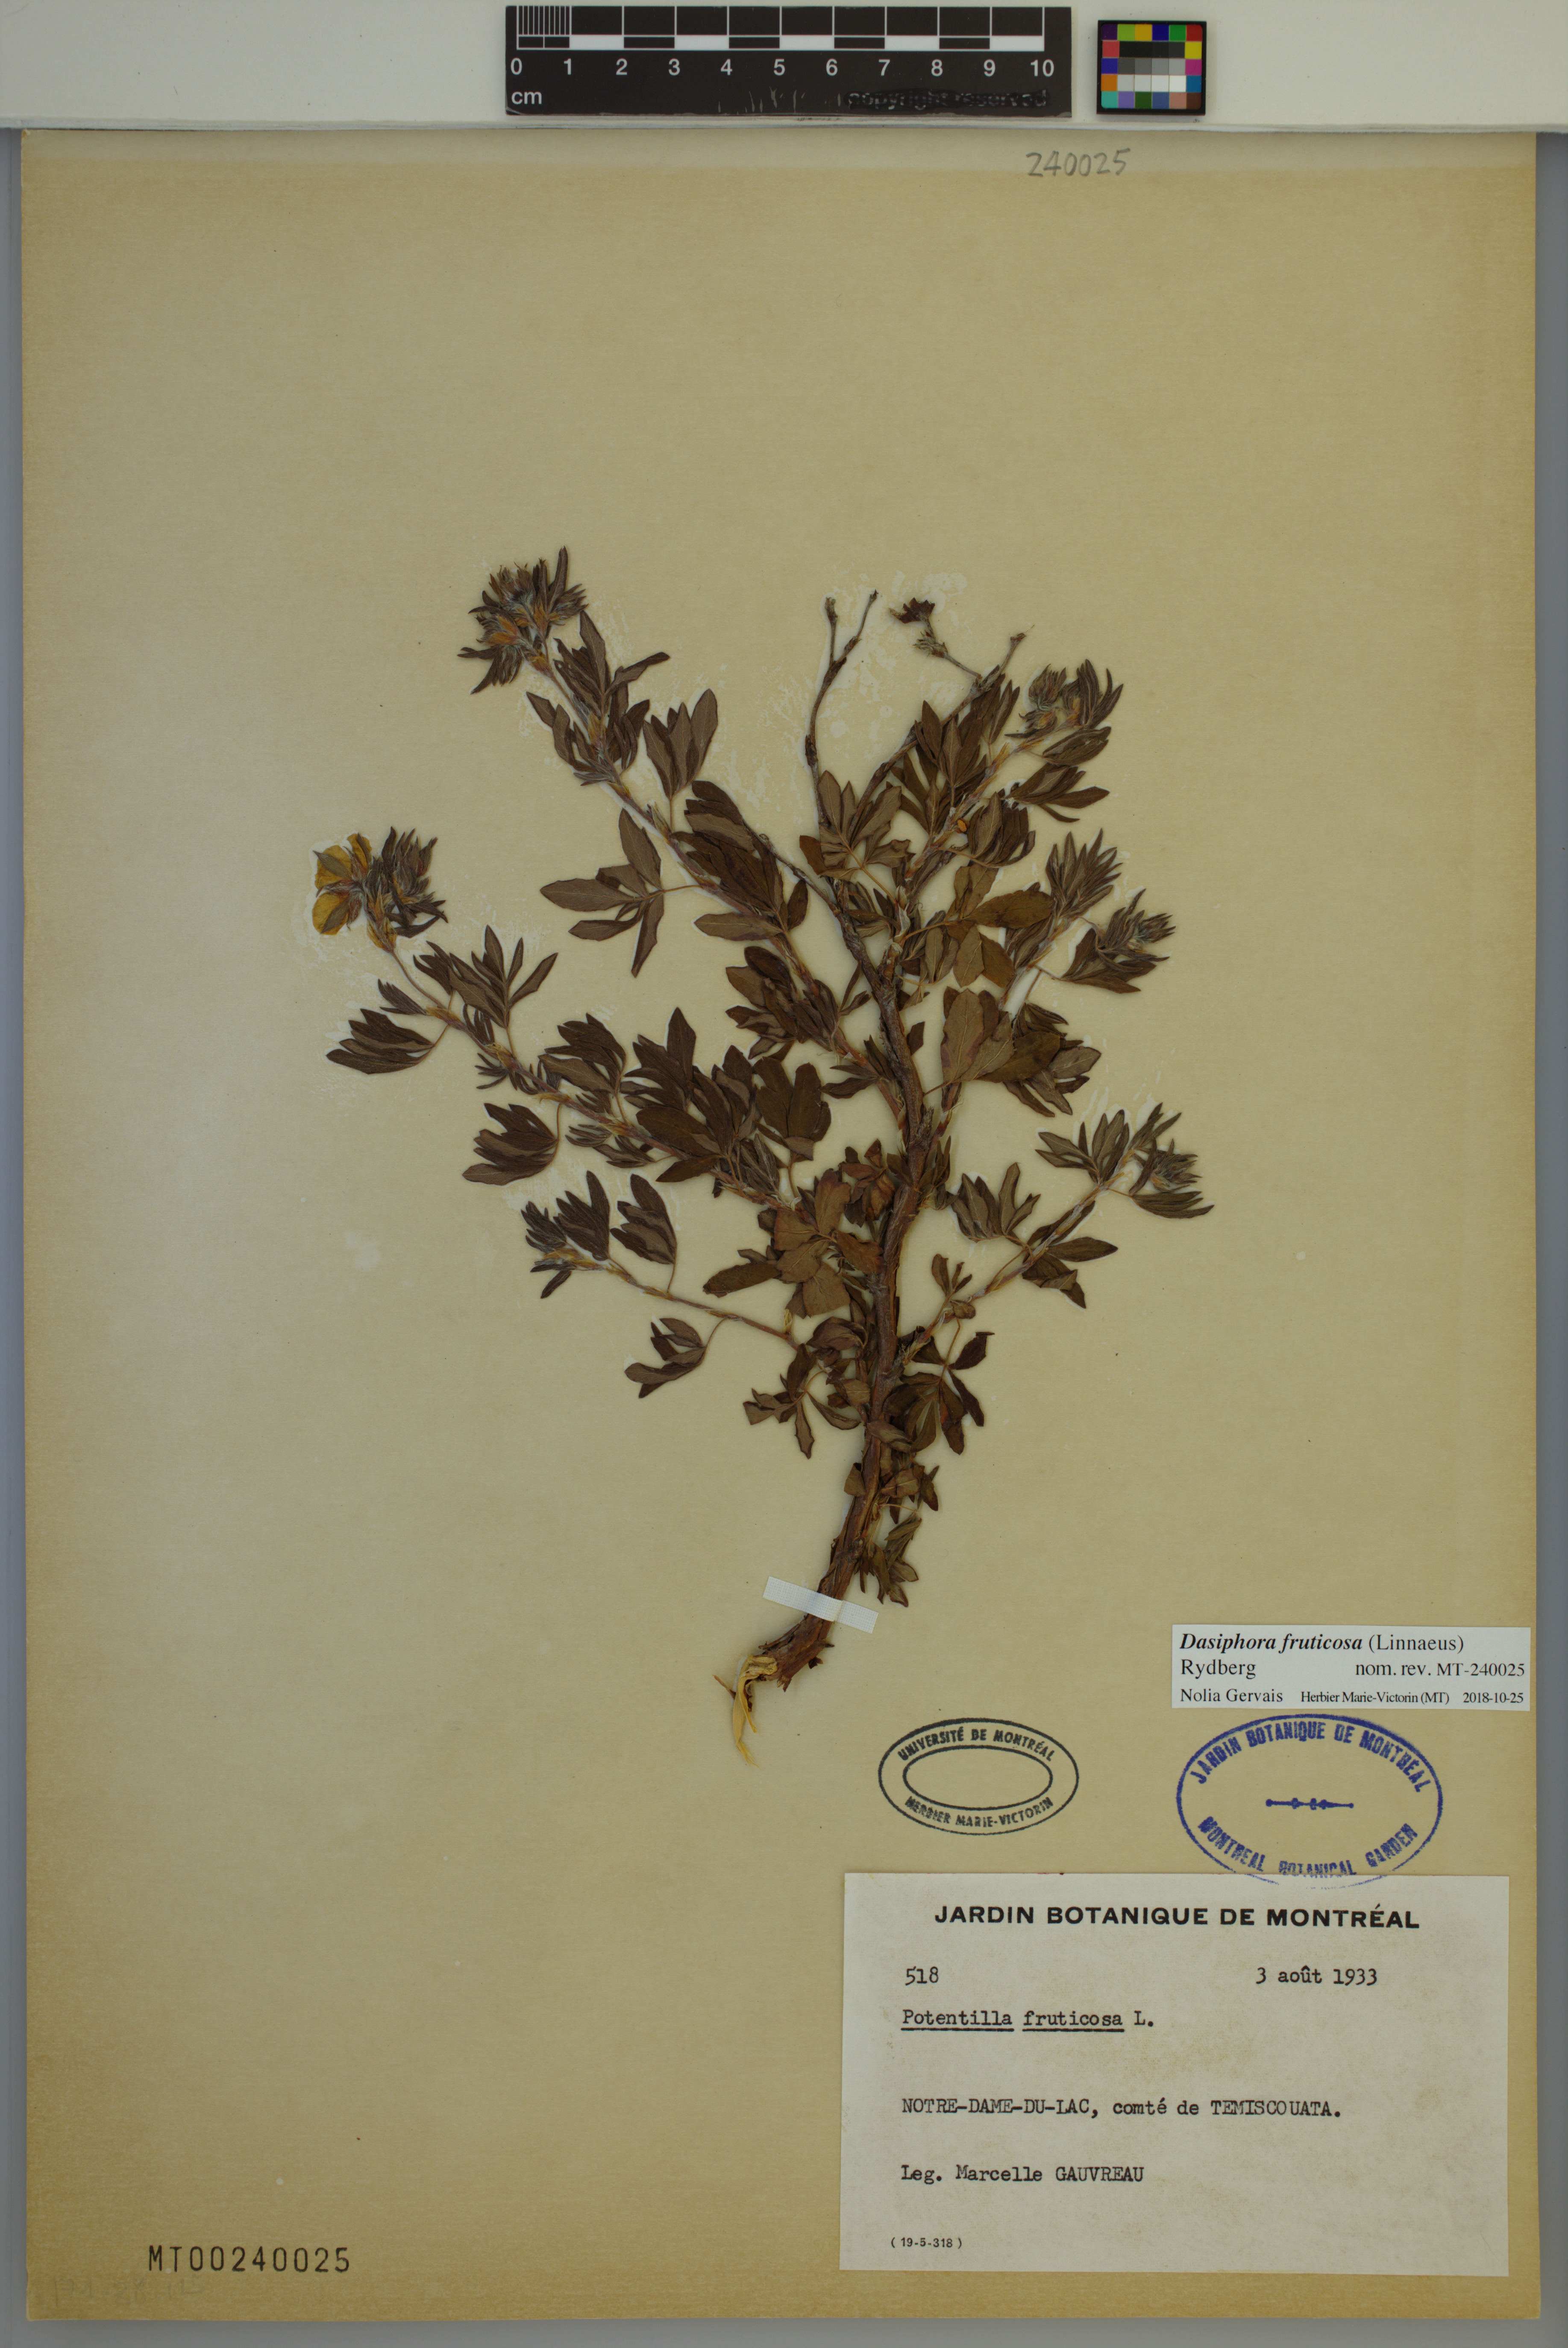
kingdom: Plantae
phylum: Tracheophyta
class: Magnoliopsida
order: Rosales
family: Rosaceae
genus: Dasiphora
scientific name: Dasiphora fruticosa
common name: Shrubby cinquefoil
